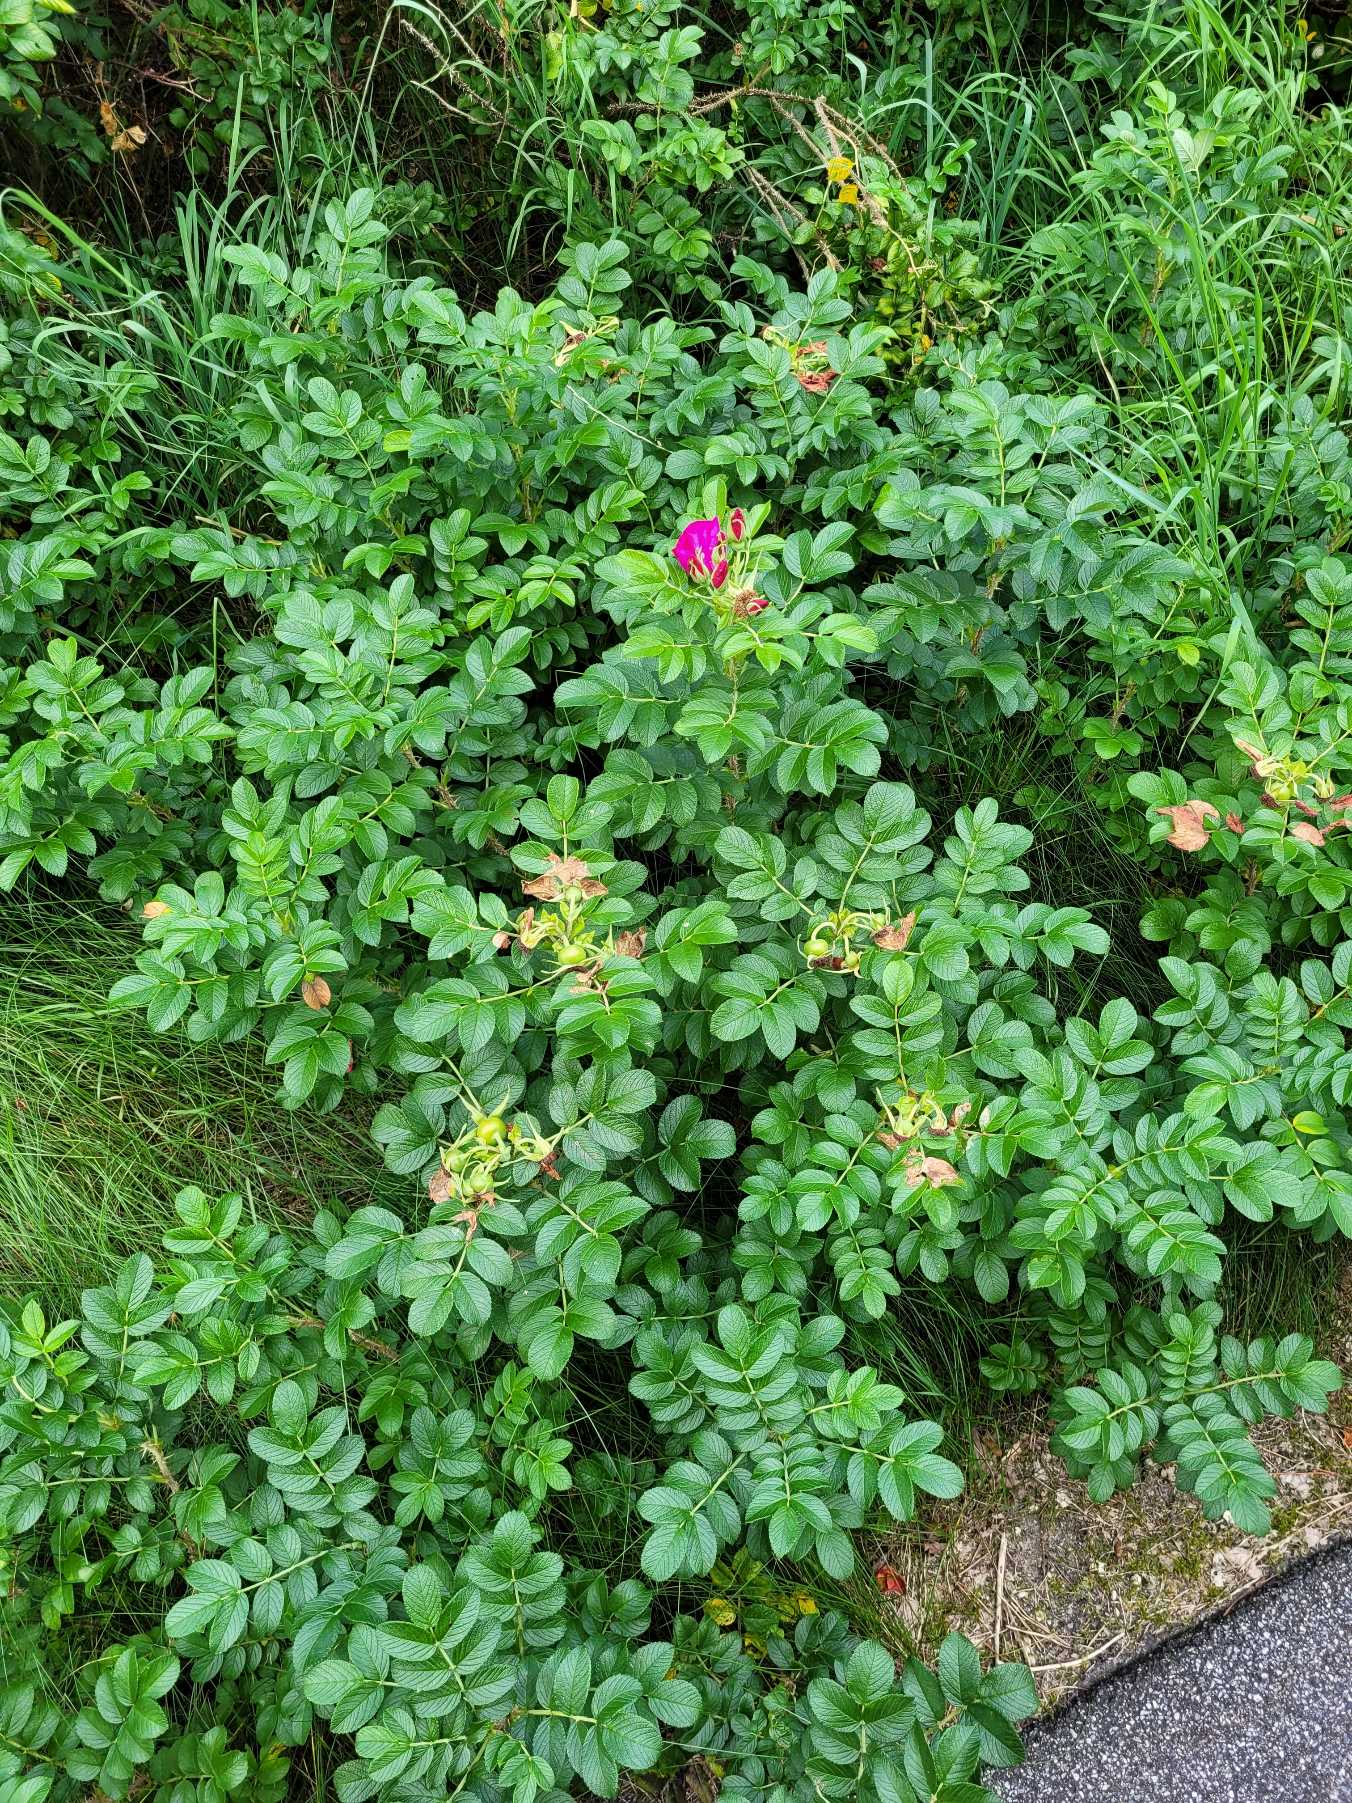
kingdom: Plantae
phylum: Tracheophyta
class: Magnoliopsida
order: Rosales
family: Rosaceae
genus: Rosa
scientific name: Rosa rugosa
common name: Rynket rose
